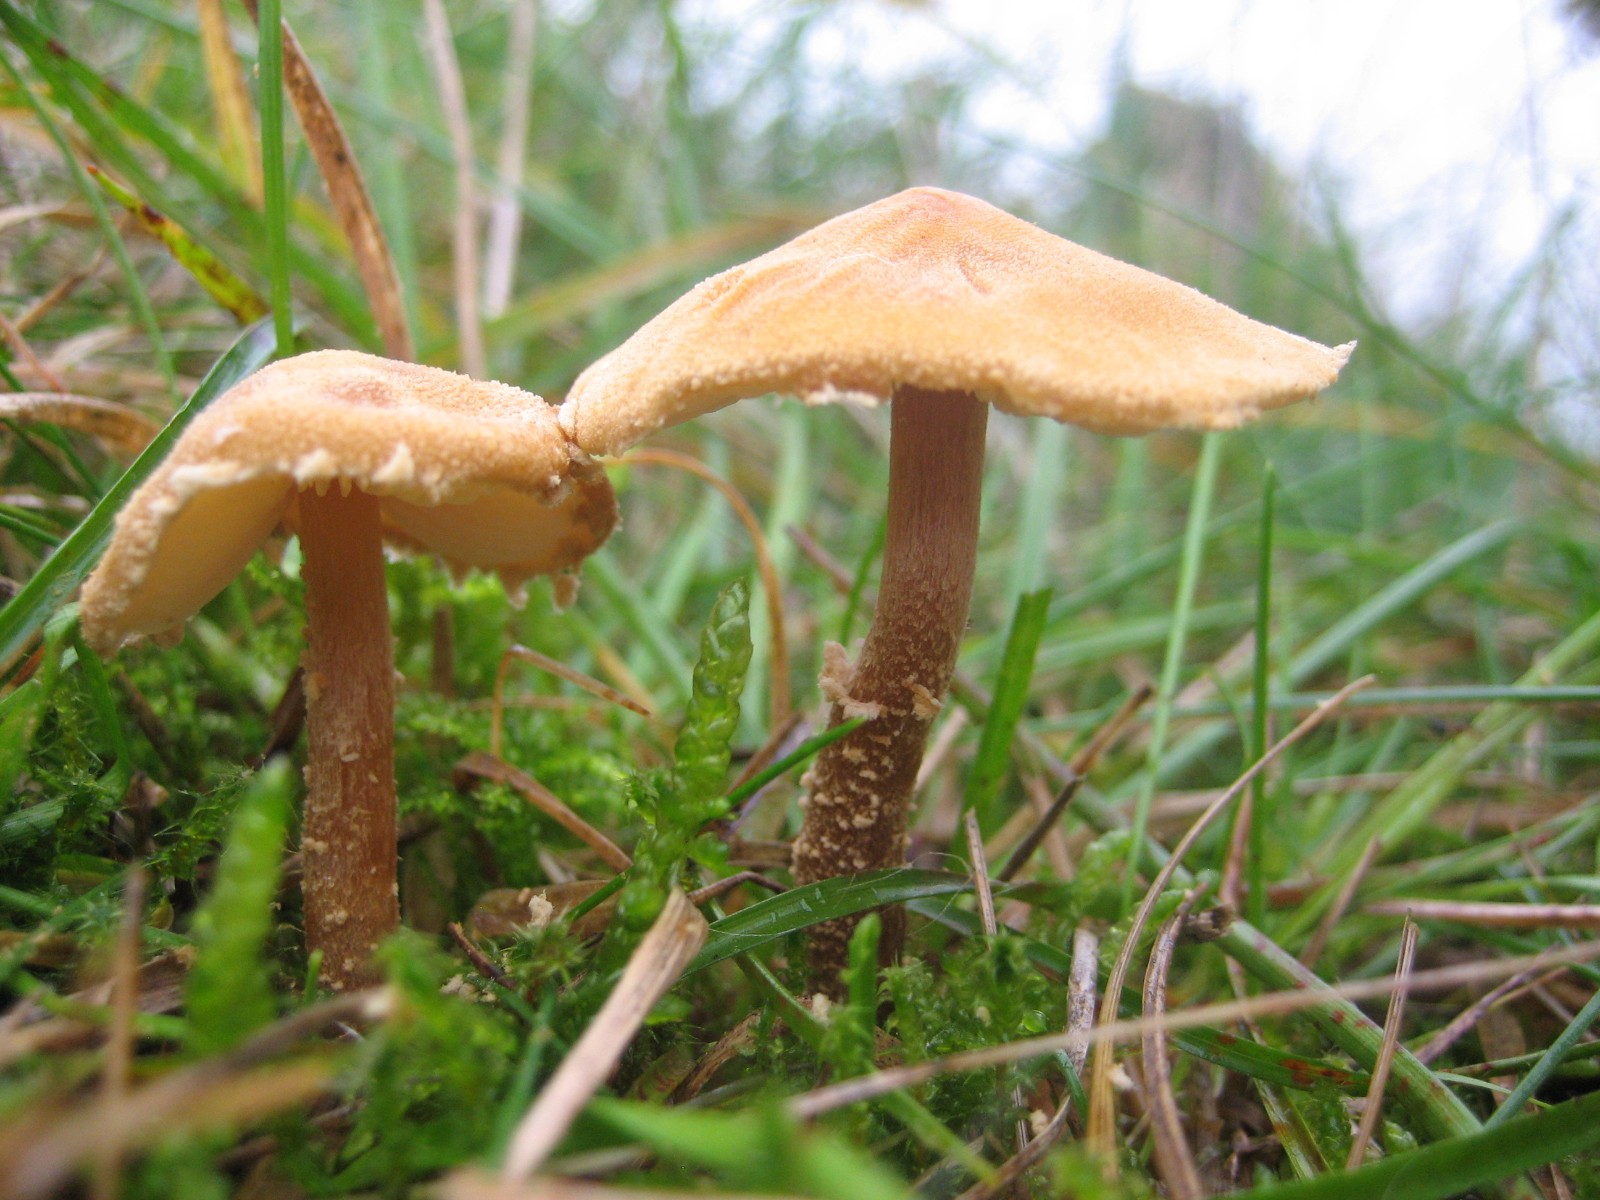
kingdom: Fungi
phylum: Basidiomycota
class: Agaricomycetes
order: Agaricales
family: Tricholomataceae
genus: Cystoderma
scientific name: Cystoderma amianthinum
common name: okkergul grynhat
